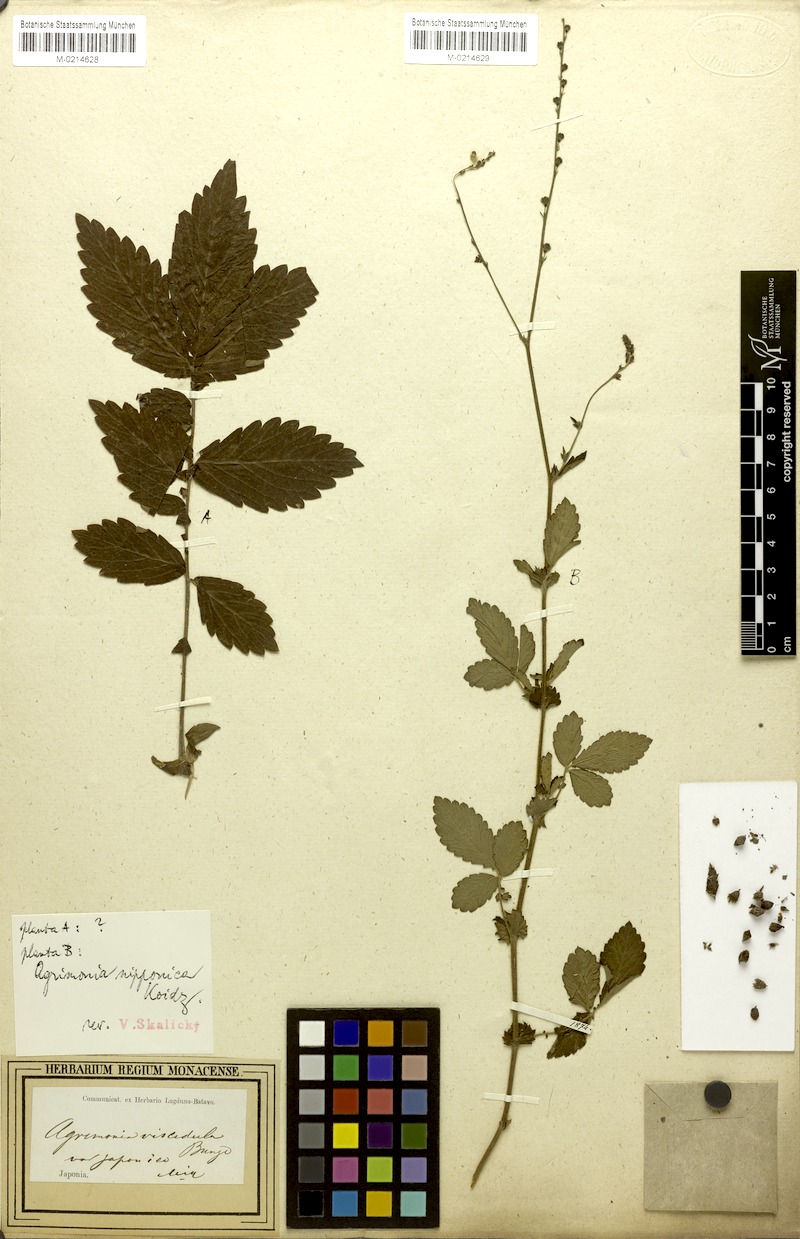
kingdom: Plantae
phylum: Tracheophyta
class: Magnoliopsida
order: Rosales
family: Rosaceae
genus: Agrimonia
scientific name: Agrimonia nipponica
